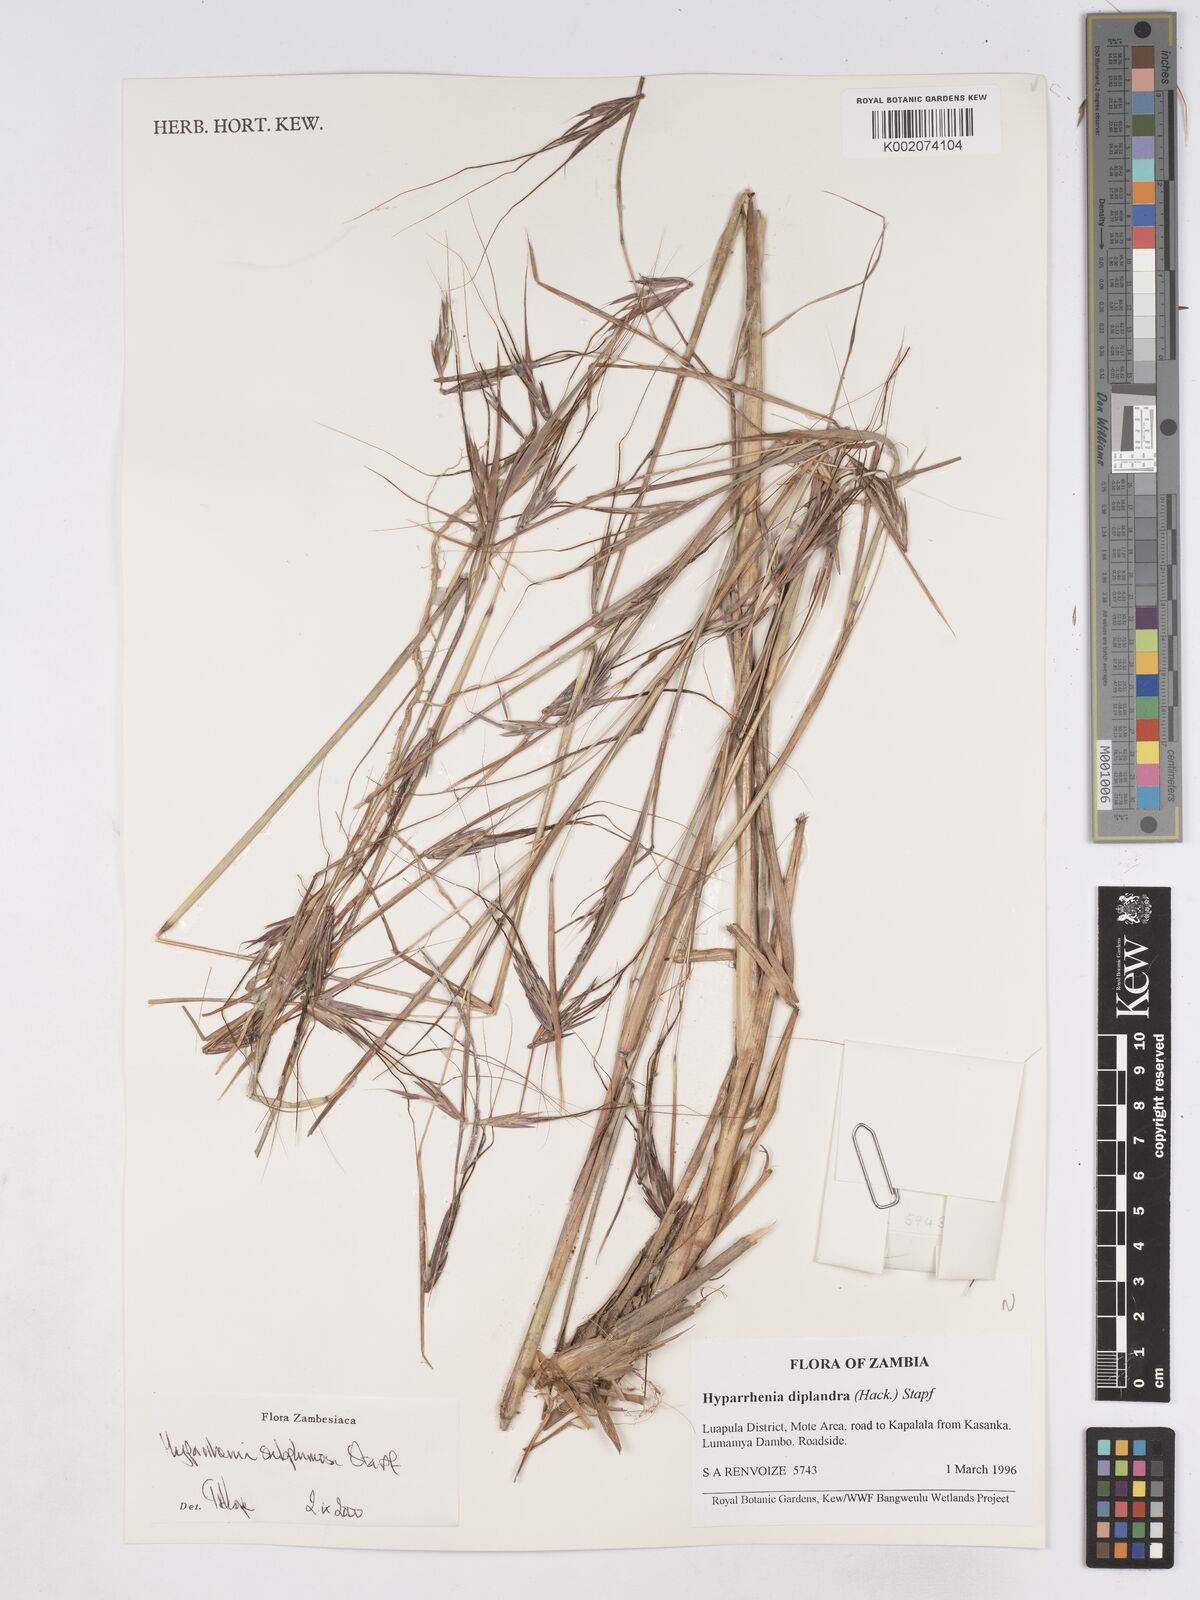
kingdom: Plantae
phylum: Tracheophyta
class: Liliopsida
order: Poales
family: Poaceae
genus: Hyparrhenia
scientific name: Hyparrhenia subplumosa
